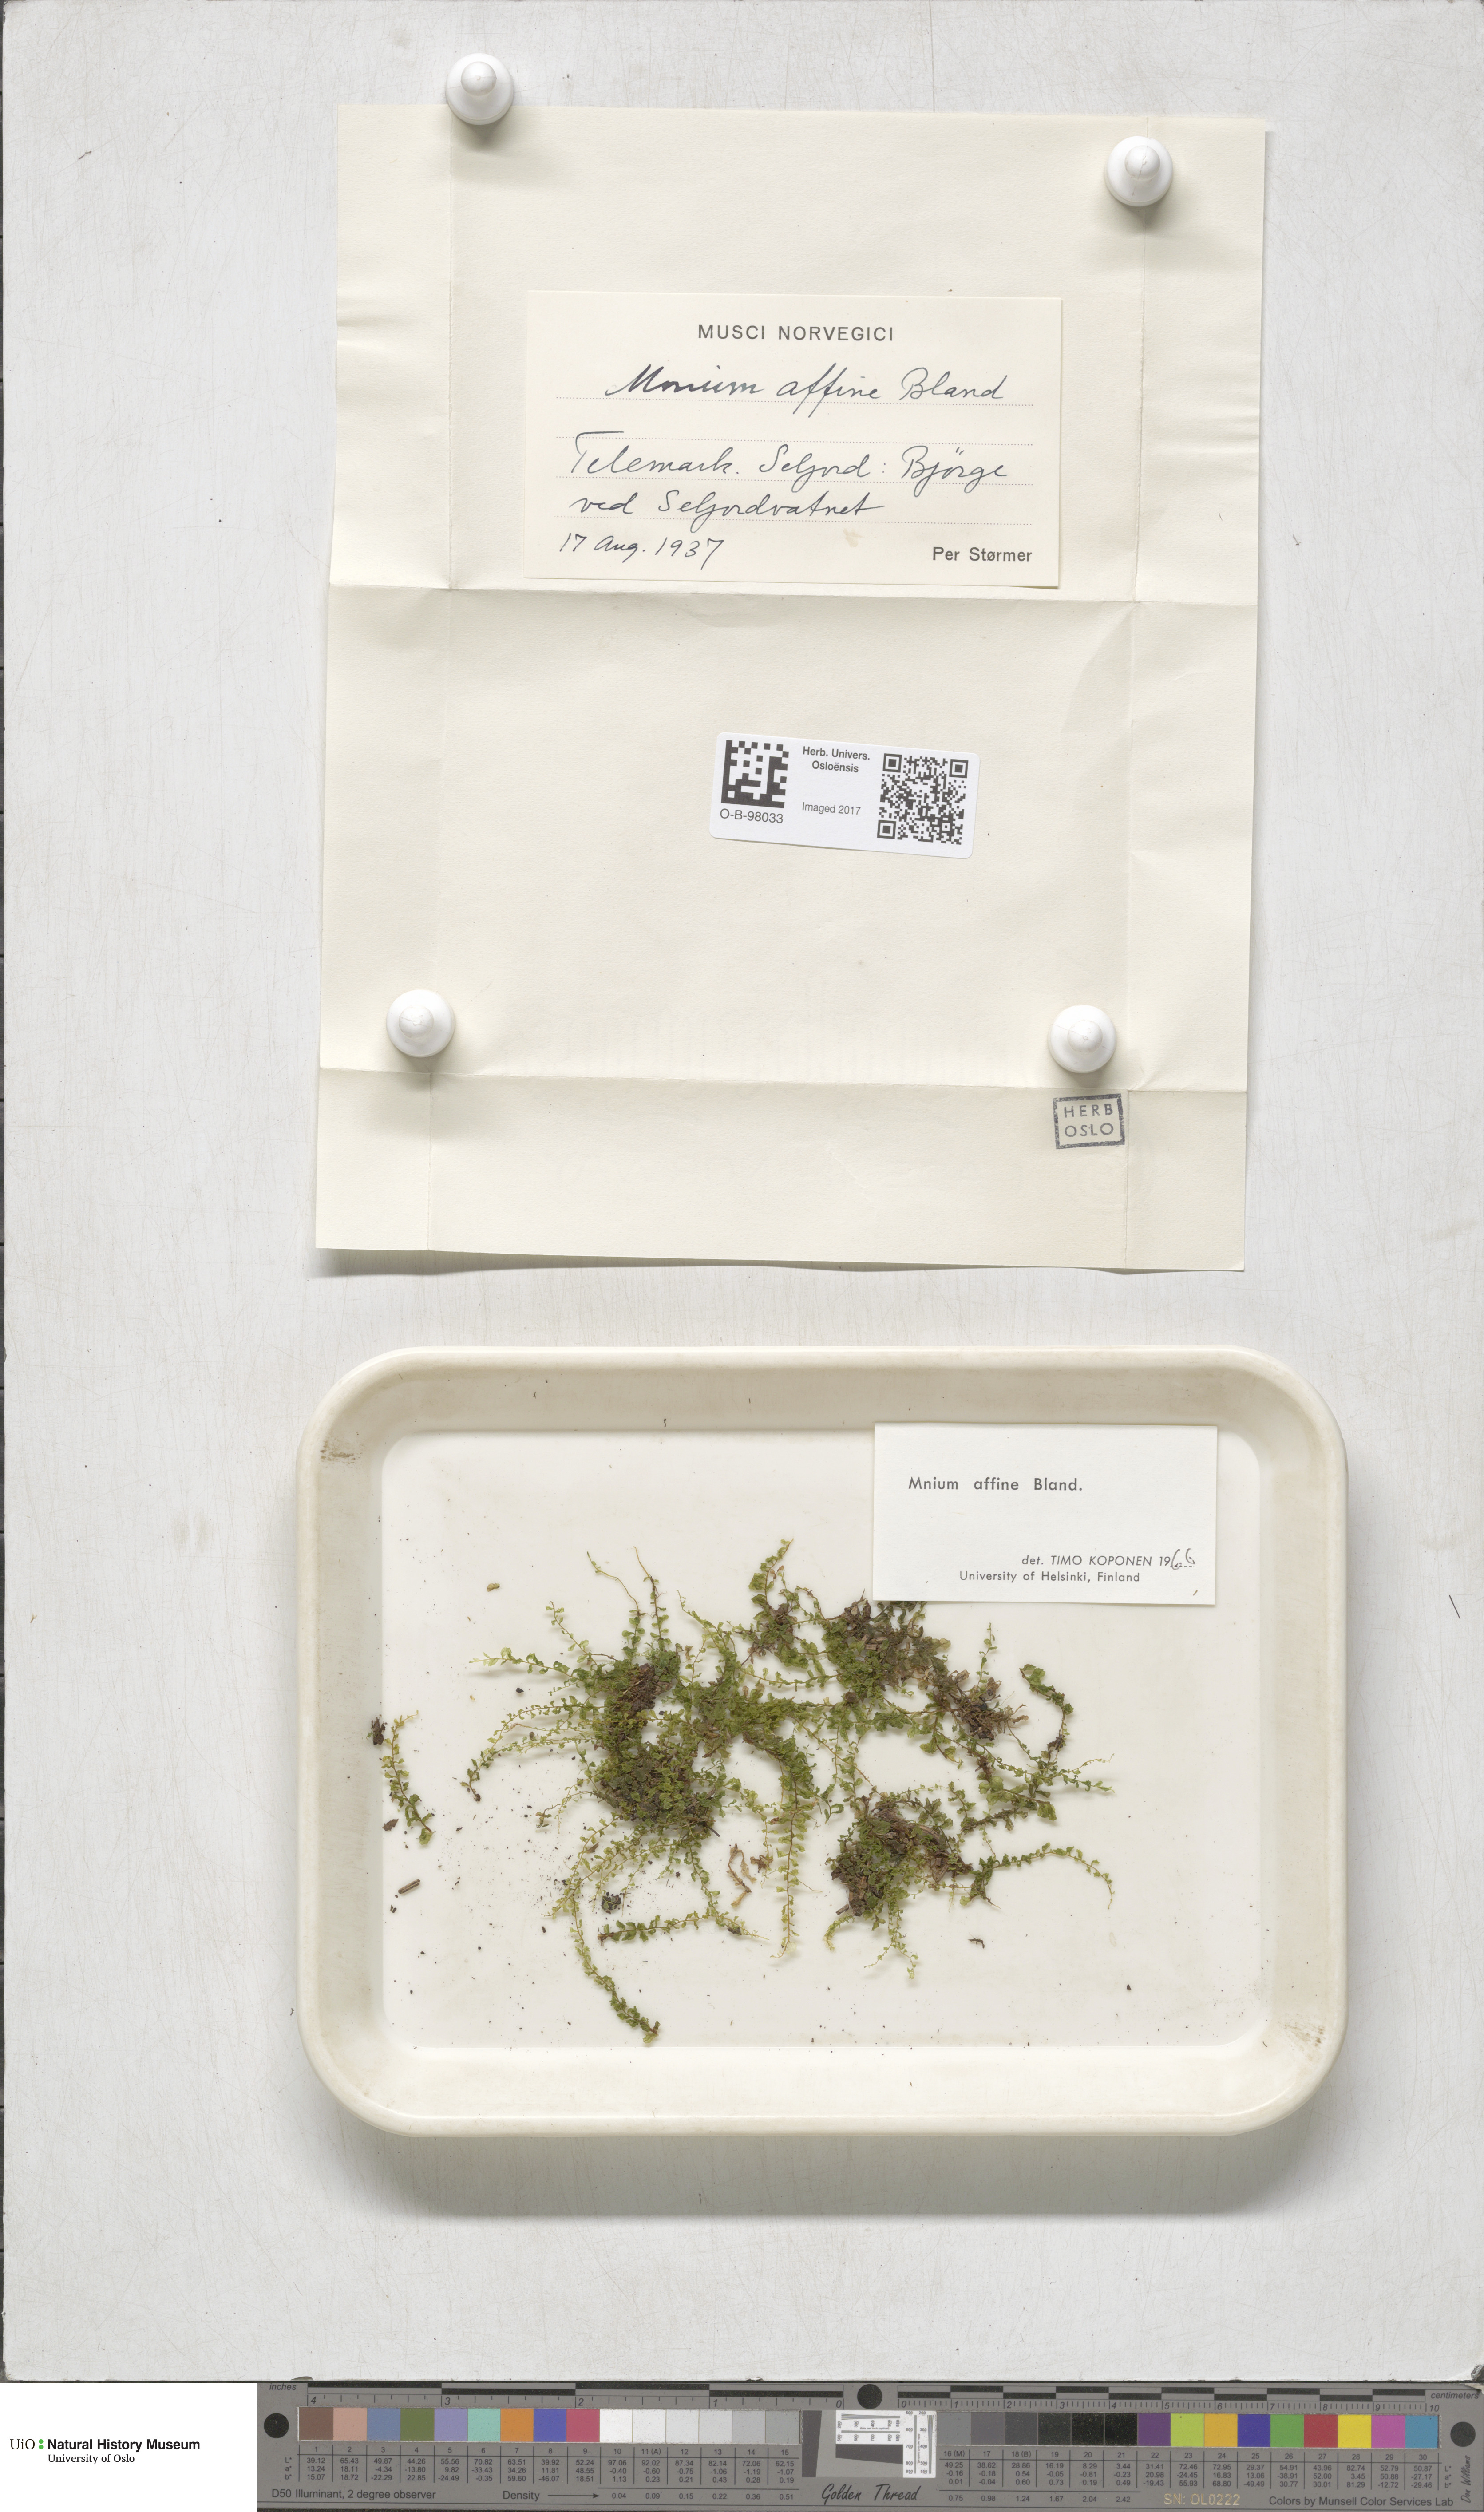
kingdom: Plantae
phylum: Bryophyta
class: Bryopsida
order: Bryales
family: Mniaceae
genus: Plagiomnium
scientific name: Plagiomnium affine
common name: Many-fruited thyme-moss
